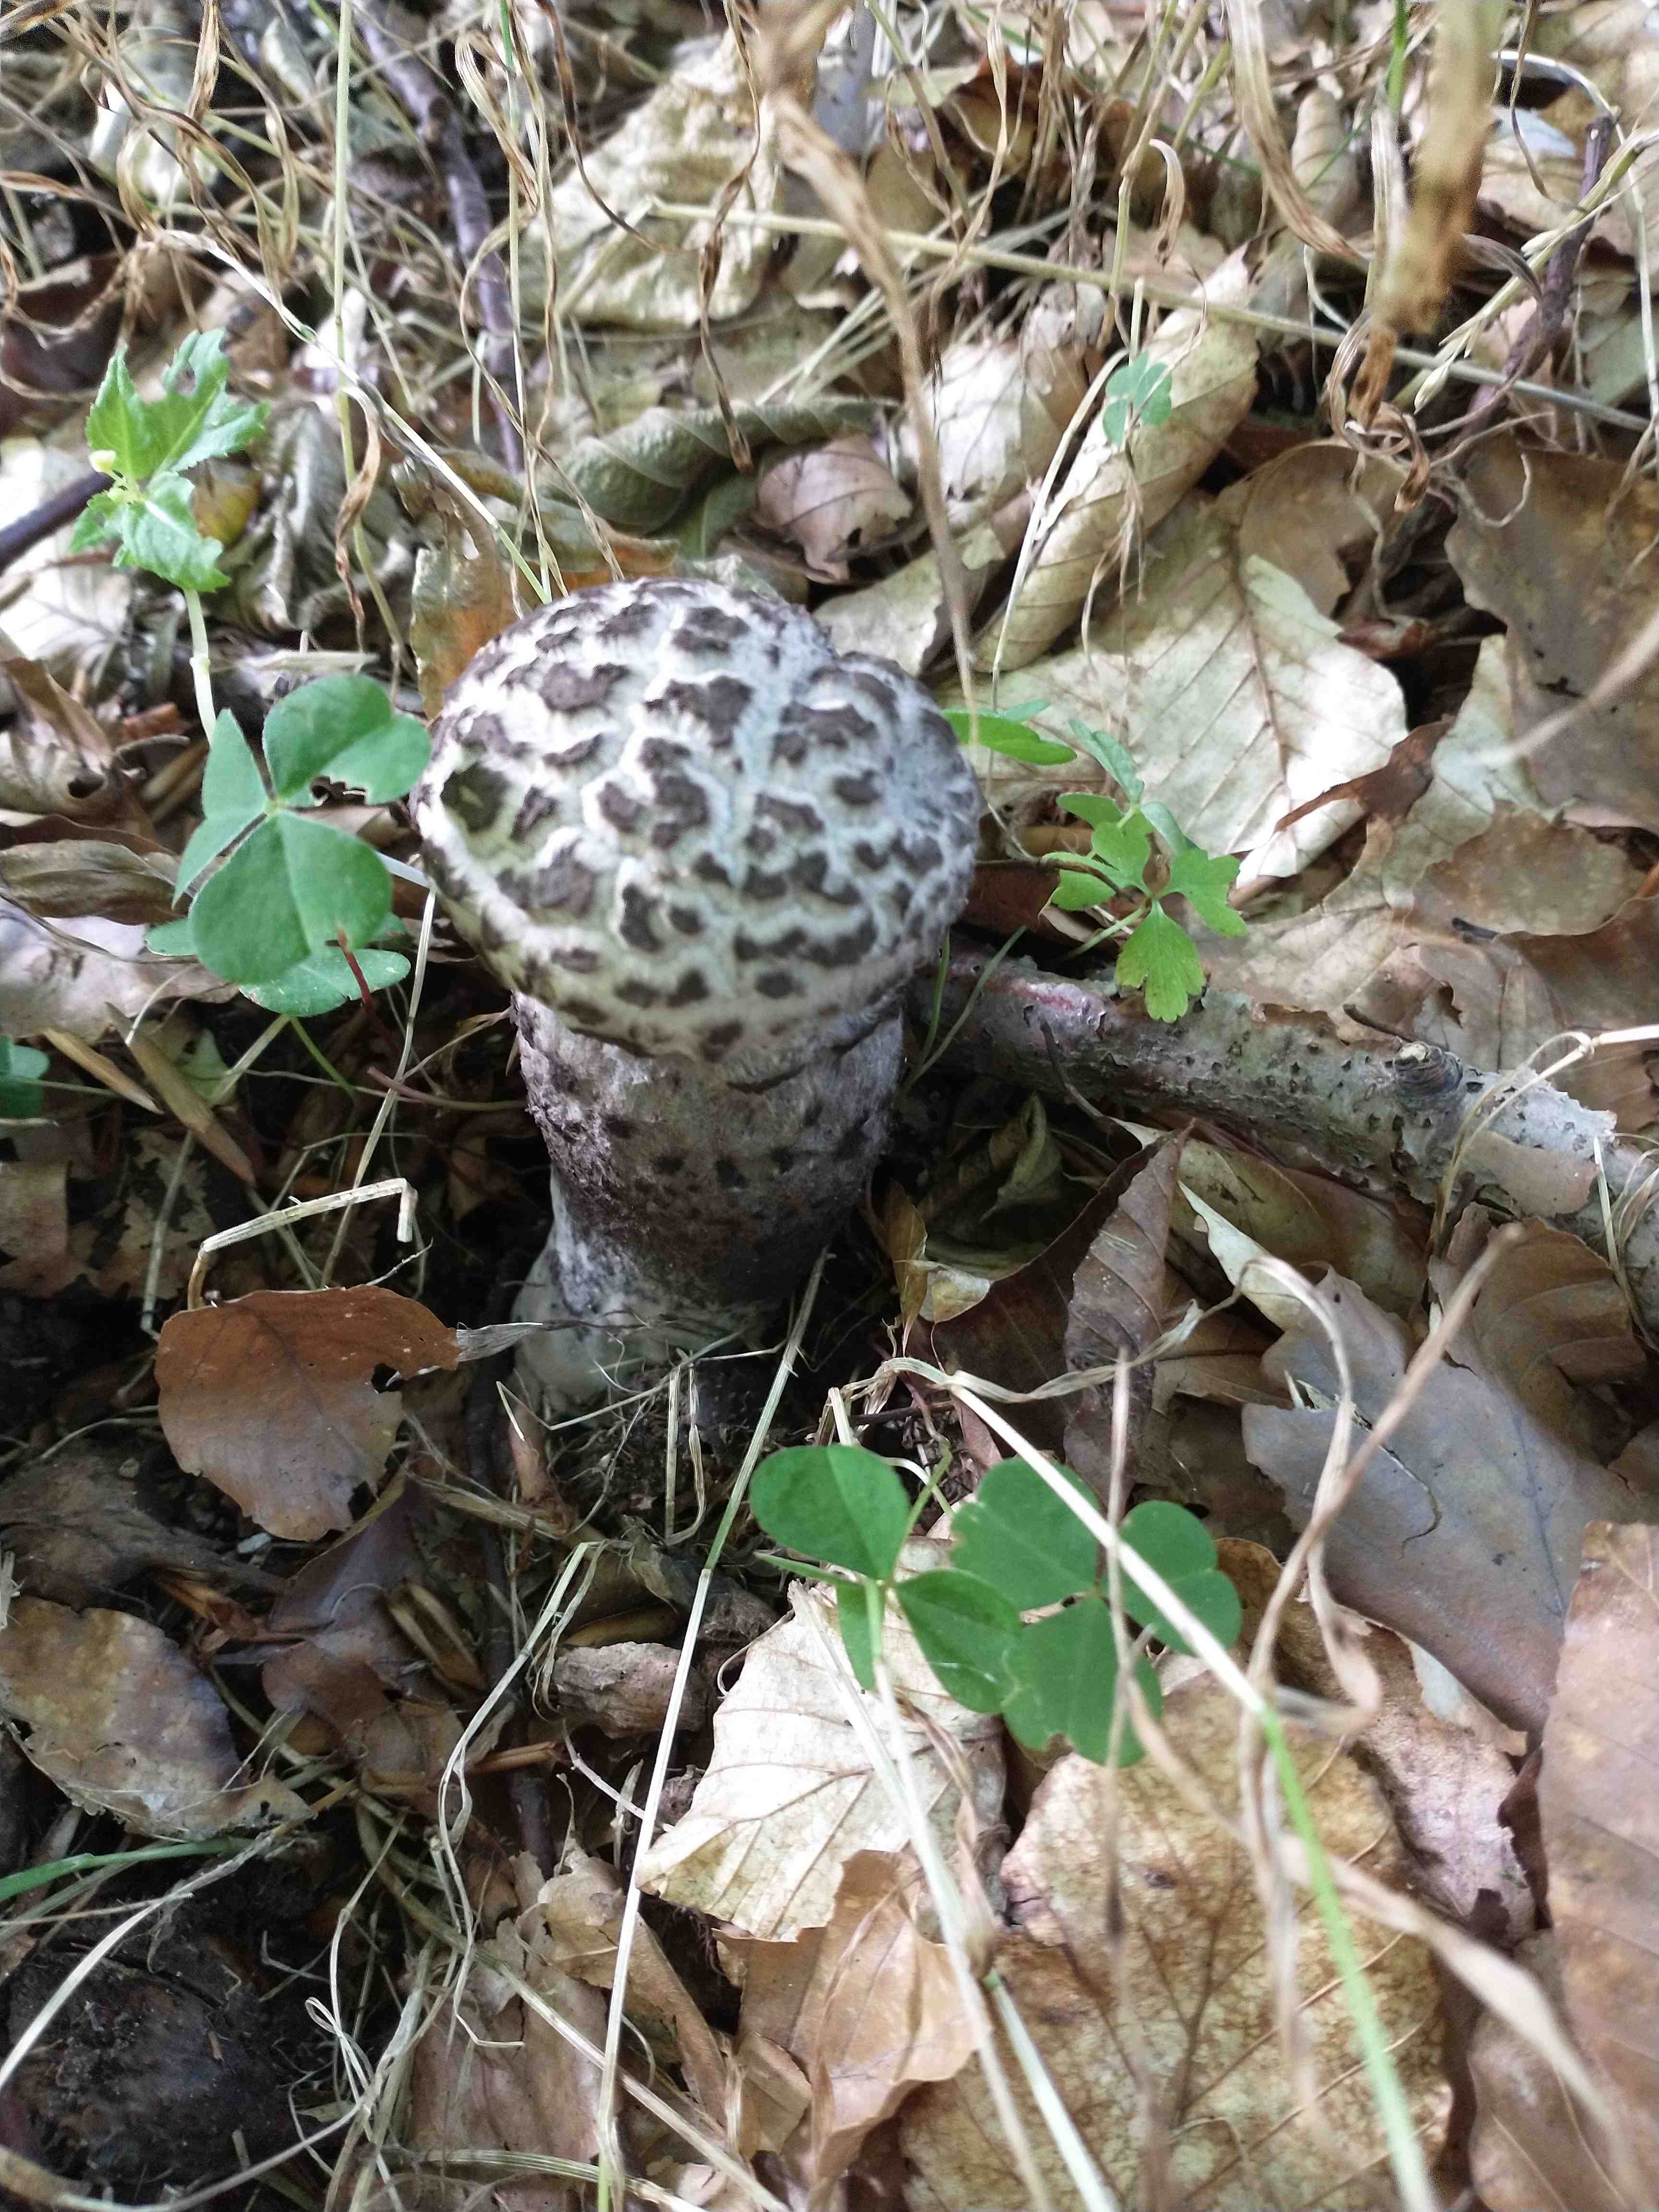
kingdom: Fungi
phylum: Basidiomycota
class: Agaricomycetes
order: Boletales
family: Boletaceae
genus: Strobilomyces
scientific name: Strobilomyces strobilaceus
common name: koglerørhat
